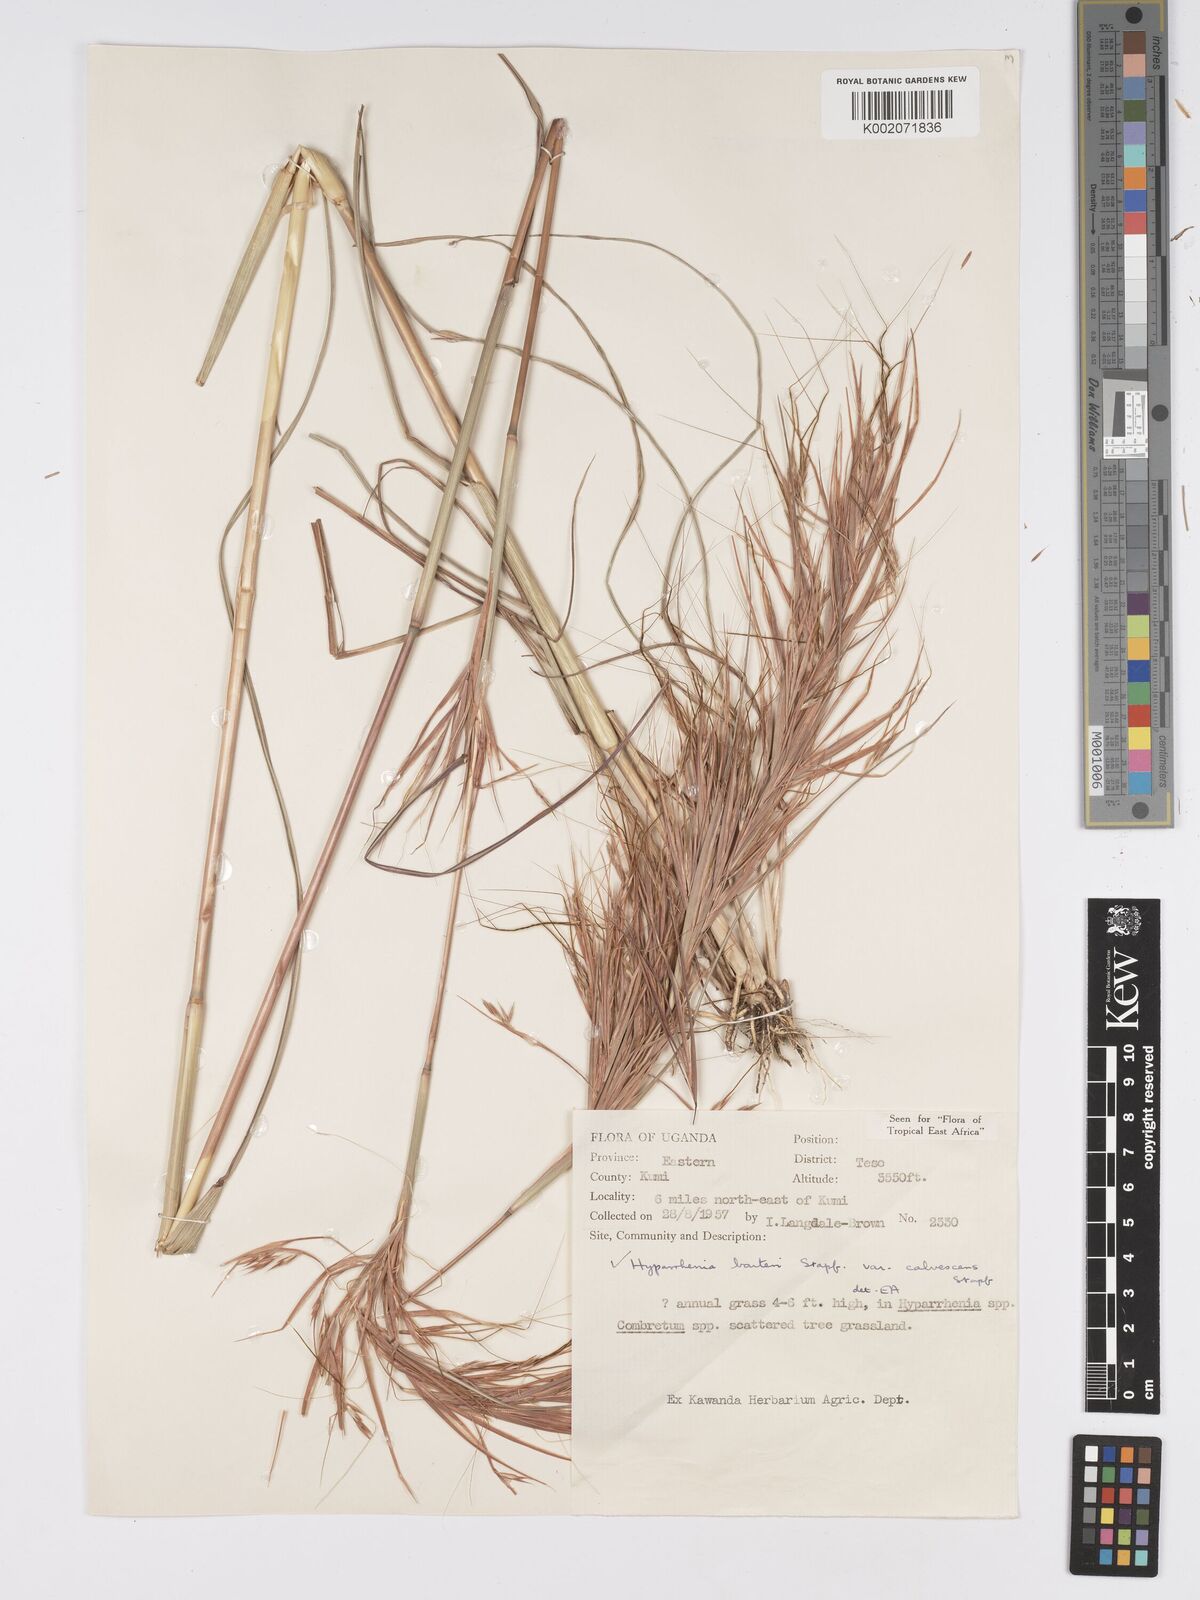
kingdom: Plantae
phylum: Tracheophyta
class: Liliopsida
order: Poales
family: Poaceae
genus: Hyparrhenia
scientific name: Hyparrhenia figariana
